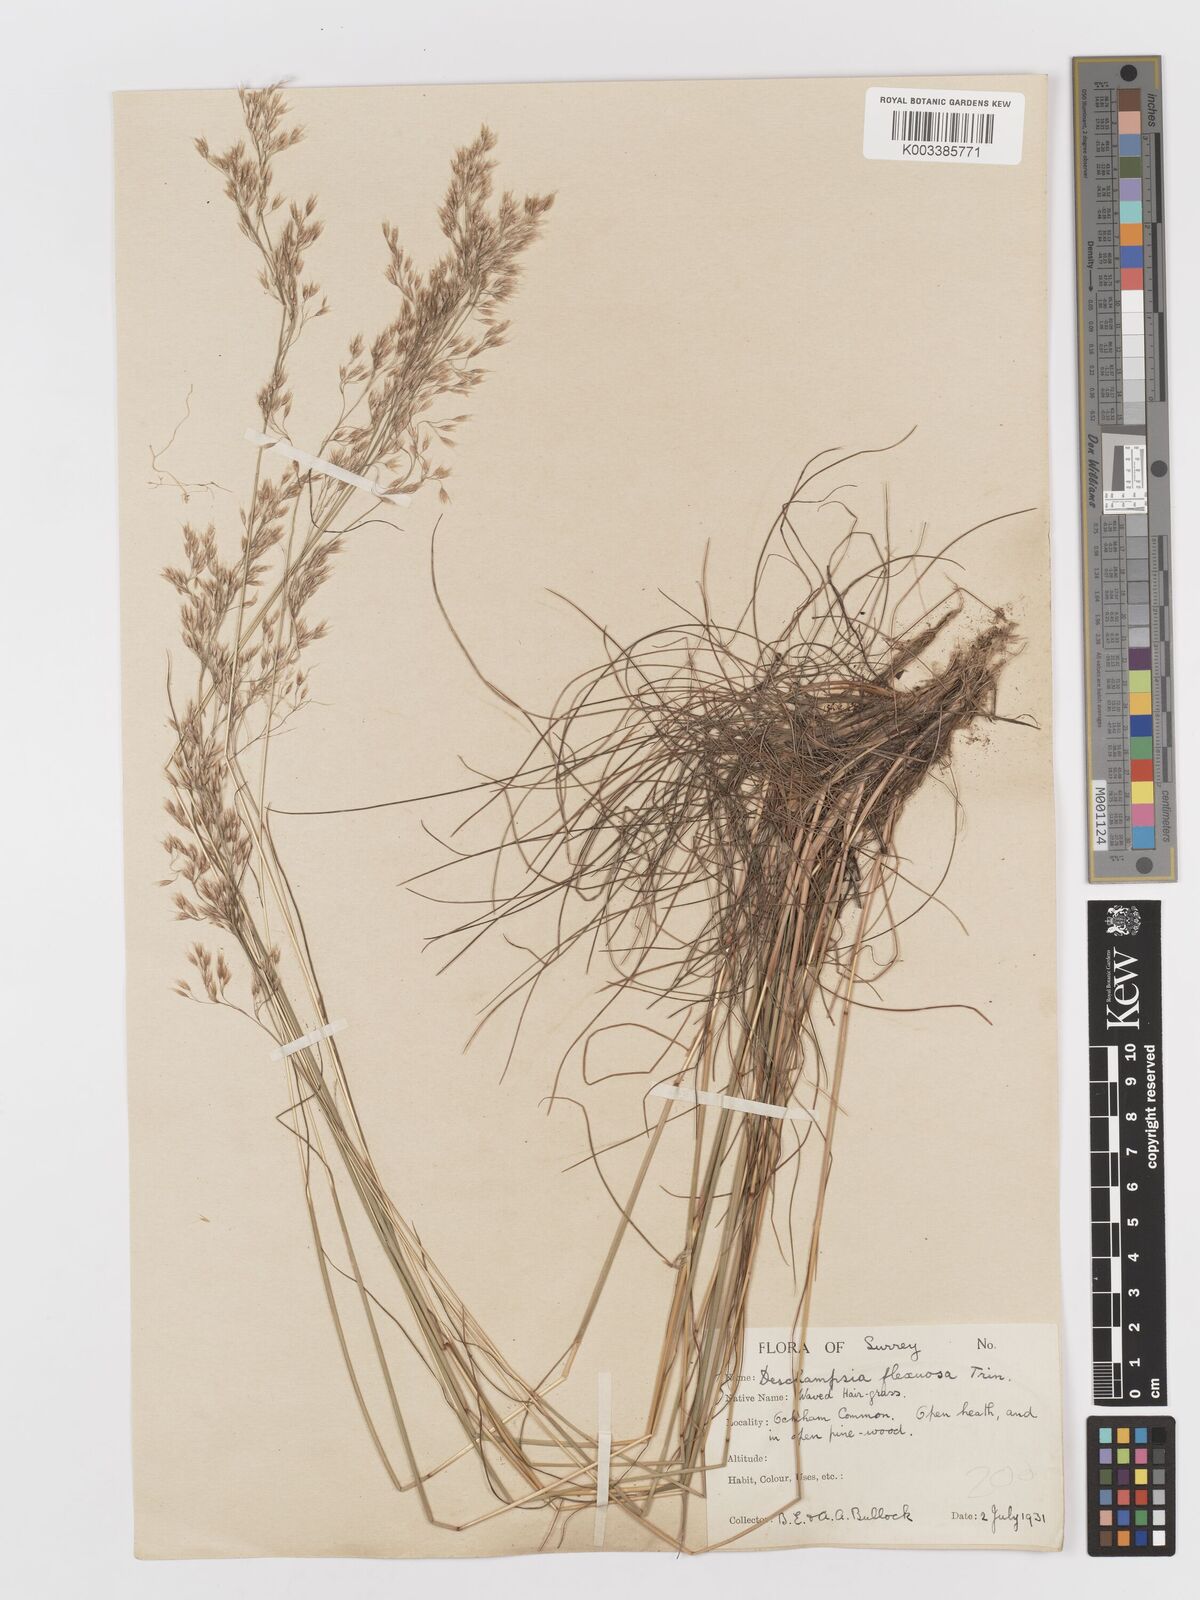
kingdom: Plantae
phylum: Tracheophyta
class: Liliopsida
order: Poales
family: Poaceae
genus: Avenella
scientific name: Avenella flexuosa
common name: Wavy hairgrass
